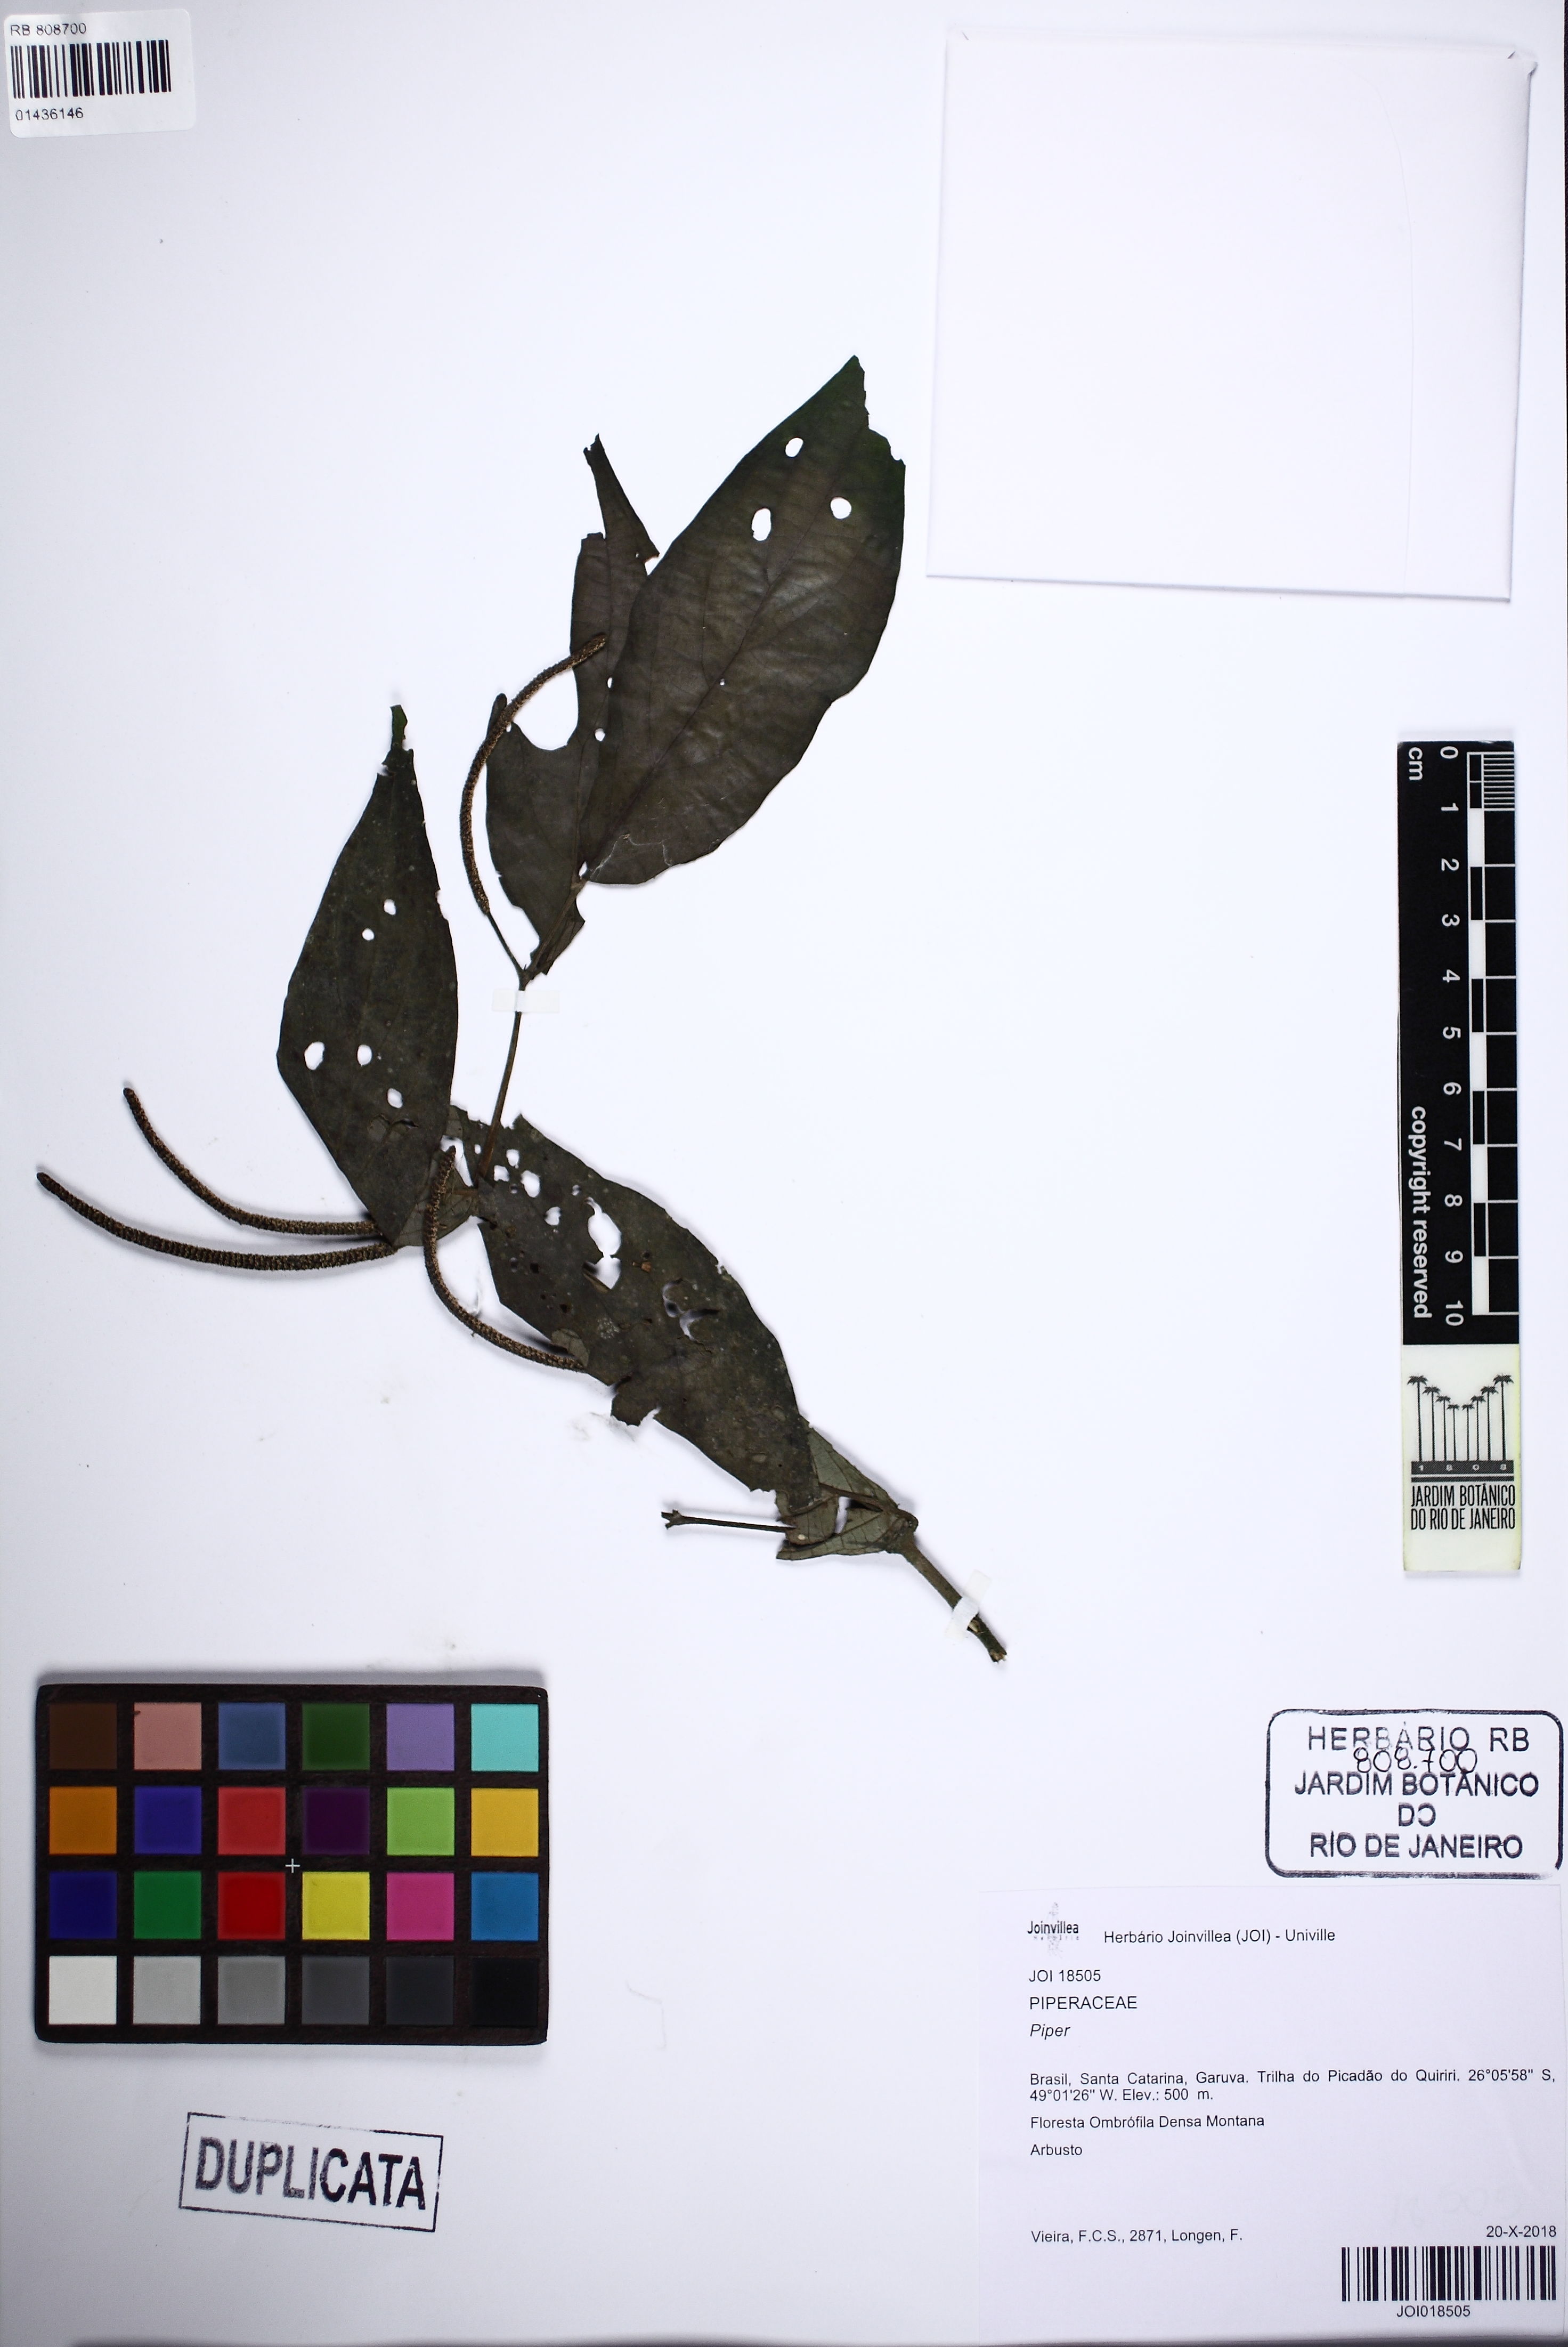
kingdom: Plantae
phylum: Tracheophyta
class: Magnoliopsida
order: Piperales
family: Piperaceae
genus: Piper
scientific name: Piper
